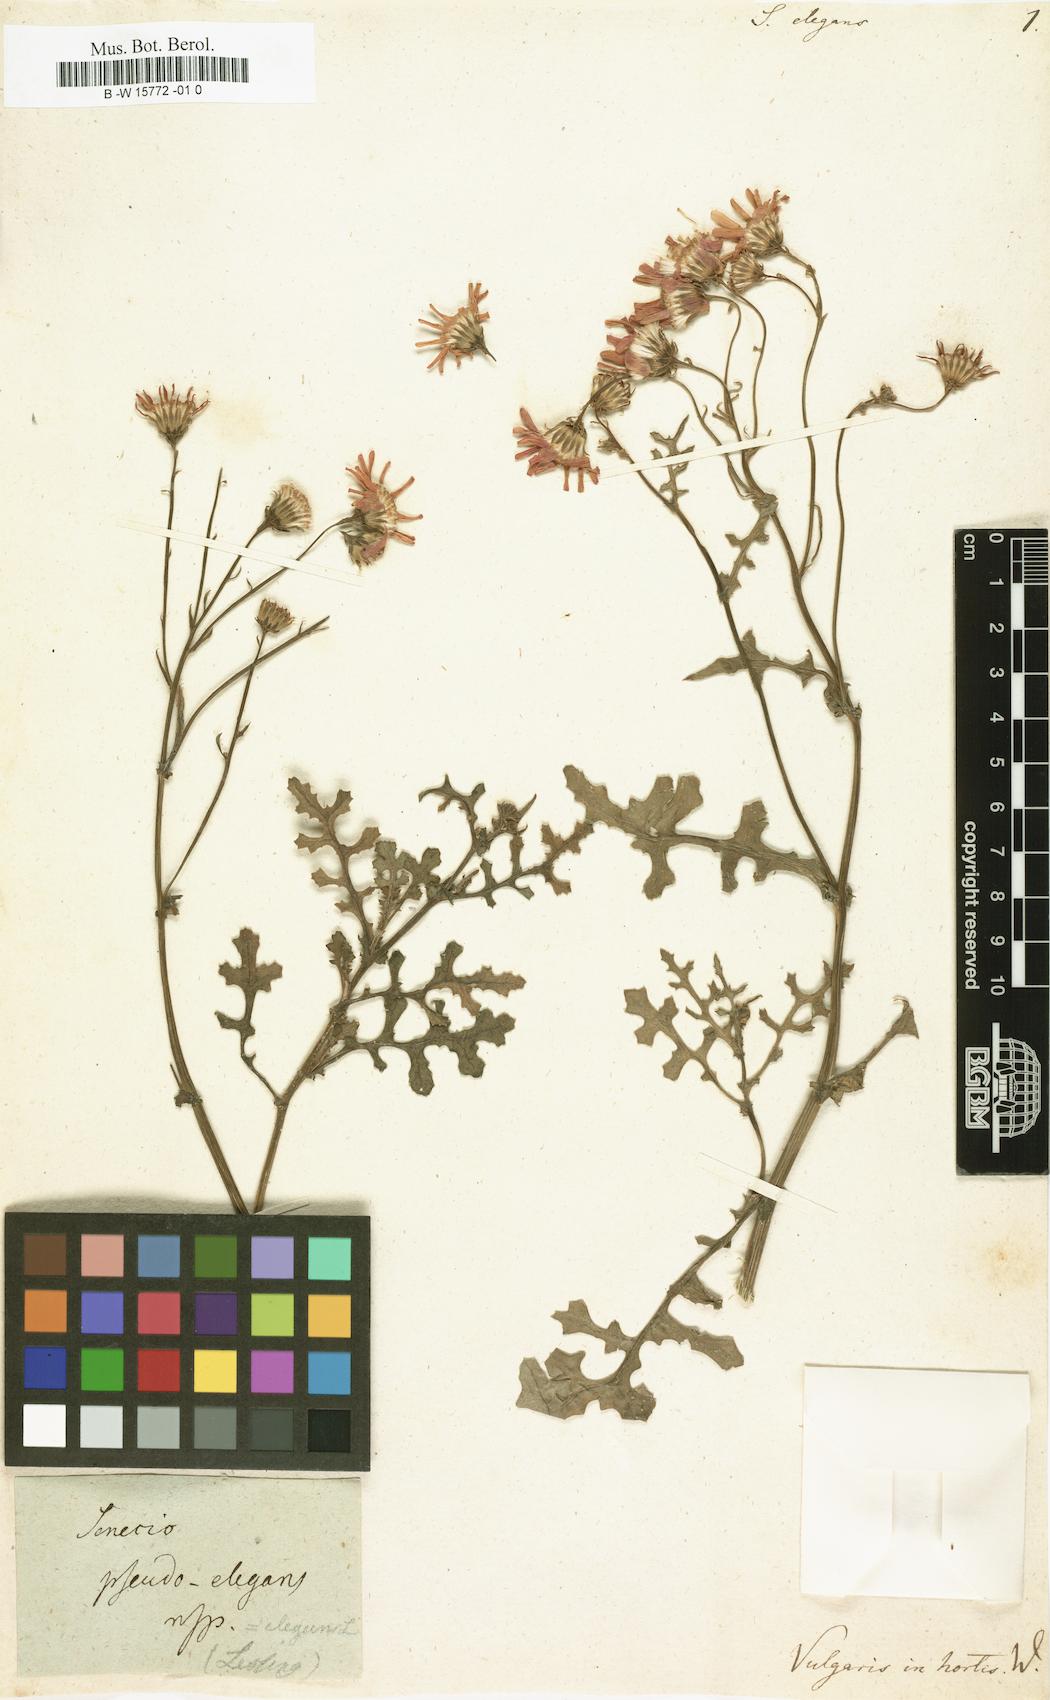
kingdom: Plantae
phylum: Tracheophyta
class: Magnoliopsida
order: Asterales
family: Asteraceae
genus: Senecio
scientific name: Senecio elegans
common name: Purple groundsel
